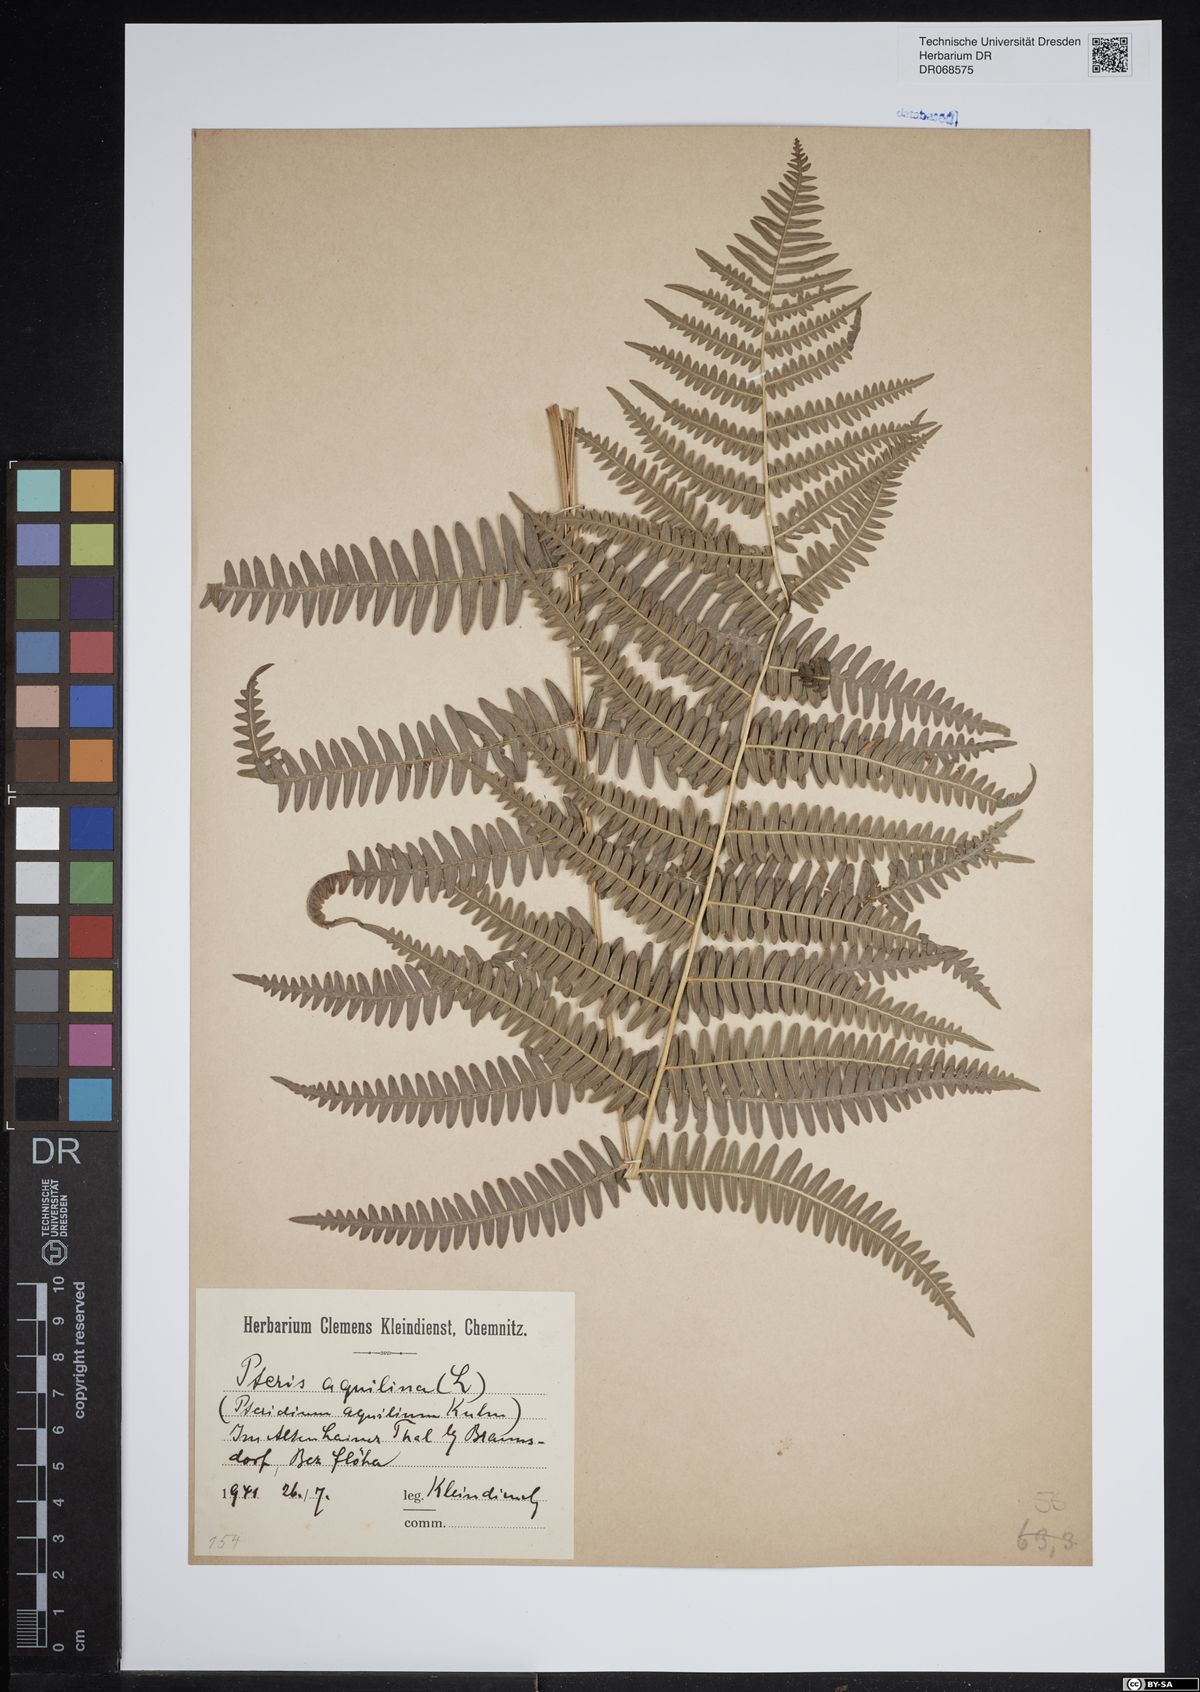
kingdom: Plantae
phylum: Tracheophyta
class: Polypodiopsida
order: Polypodiales
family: Dennstaedtiaceae
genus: Pteridium
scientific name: Pteridium aquilinum
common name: Bracken
